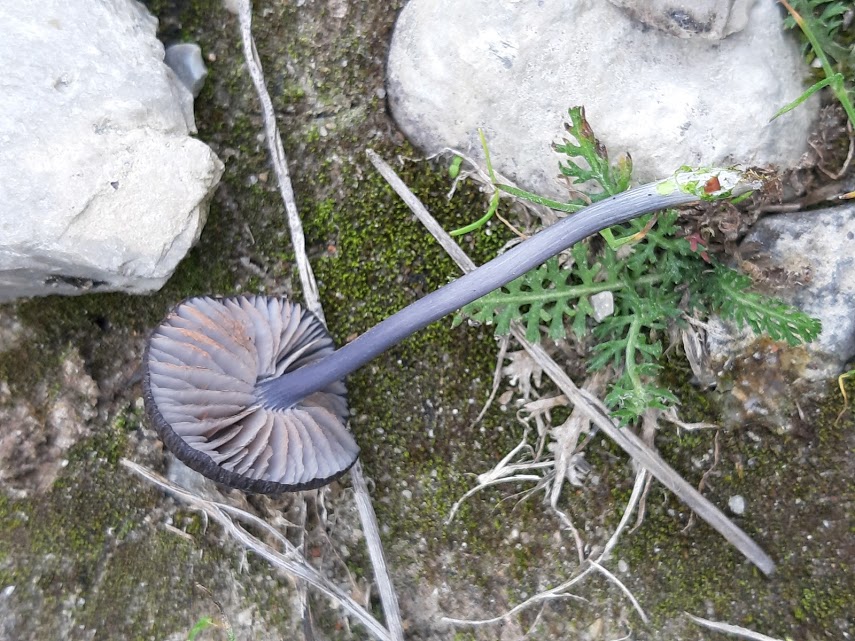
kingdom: Fungi
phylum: Basidiomycota
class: Agaricomycetes
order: Agaricales
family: Entolomataceae
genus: Entoloma
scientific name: Entoloma chalybeum
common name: blåbladet rødblad
